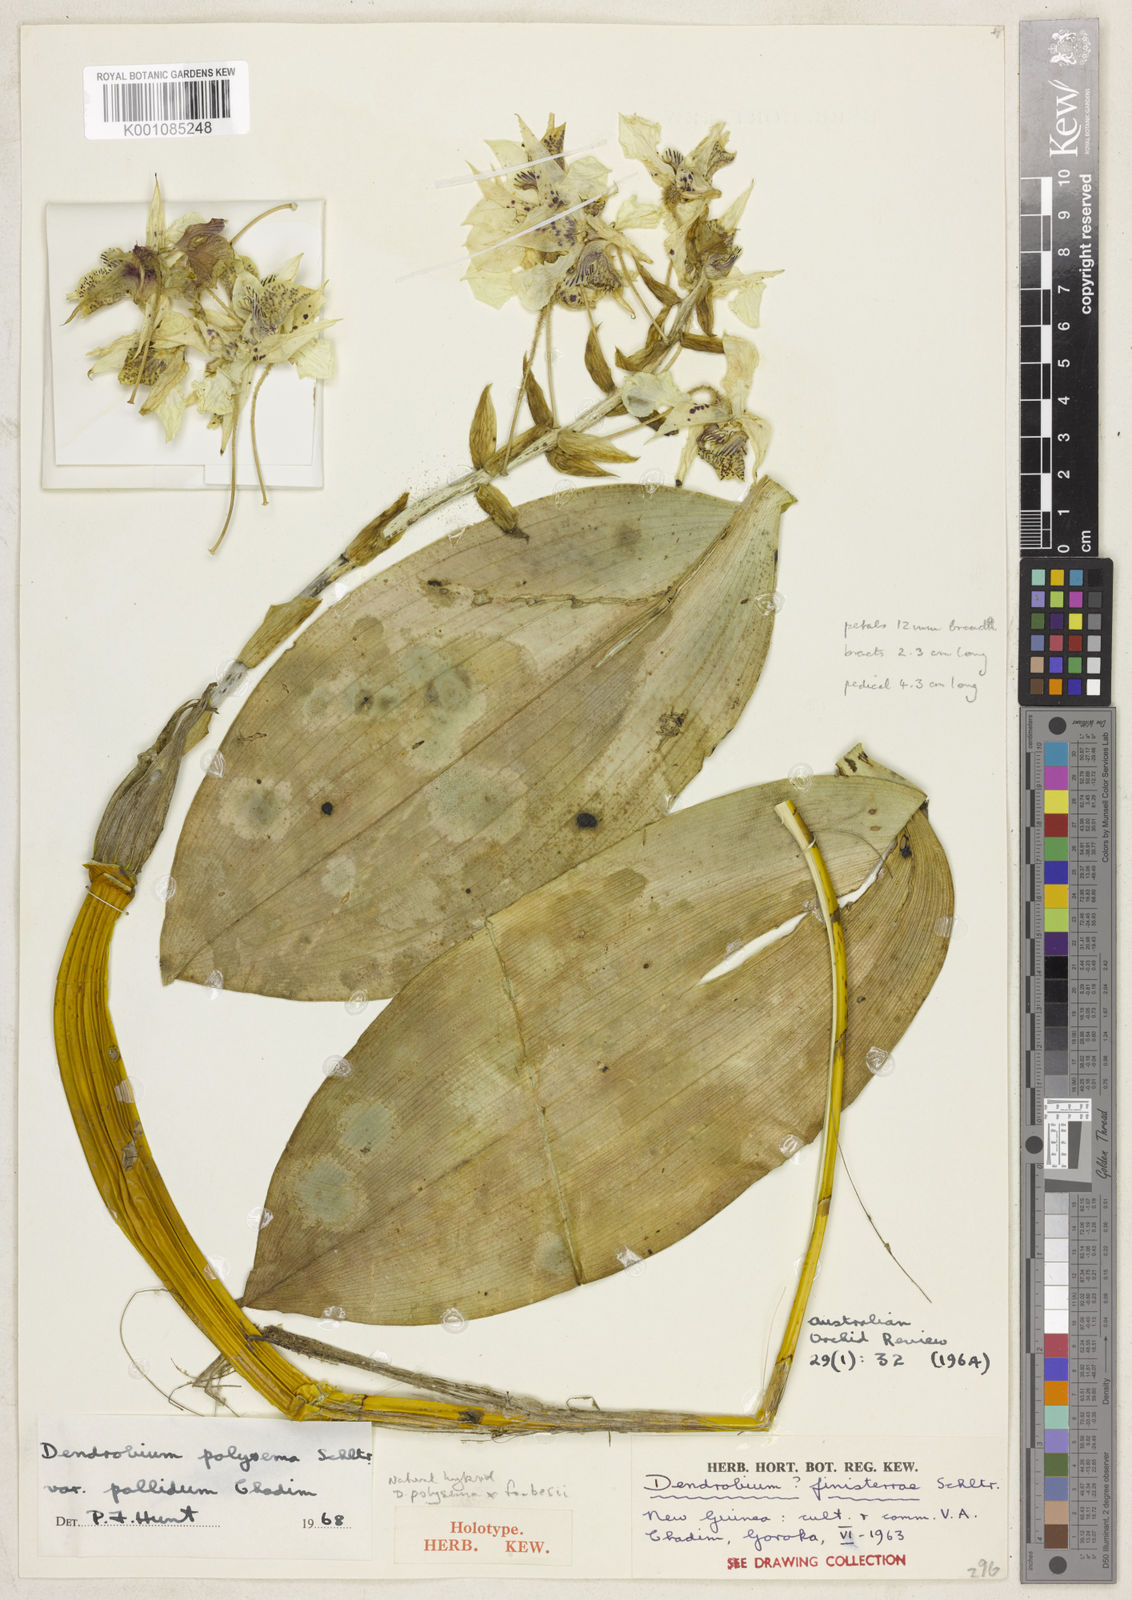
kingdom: Plantae
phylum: Tracheophyta
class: Liliopsida
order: Asparagales
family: Orchidaceae
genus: Dendrobium
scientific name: Dendrobium polysema
